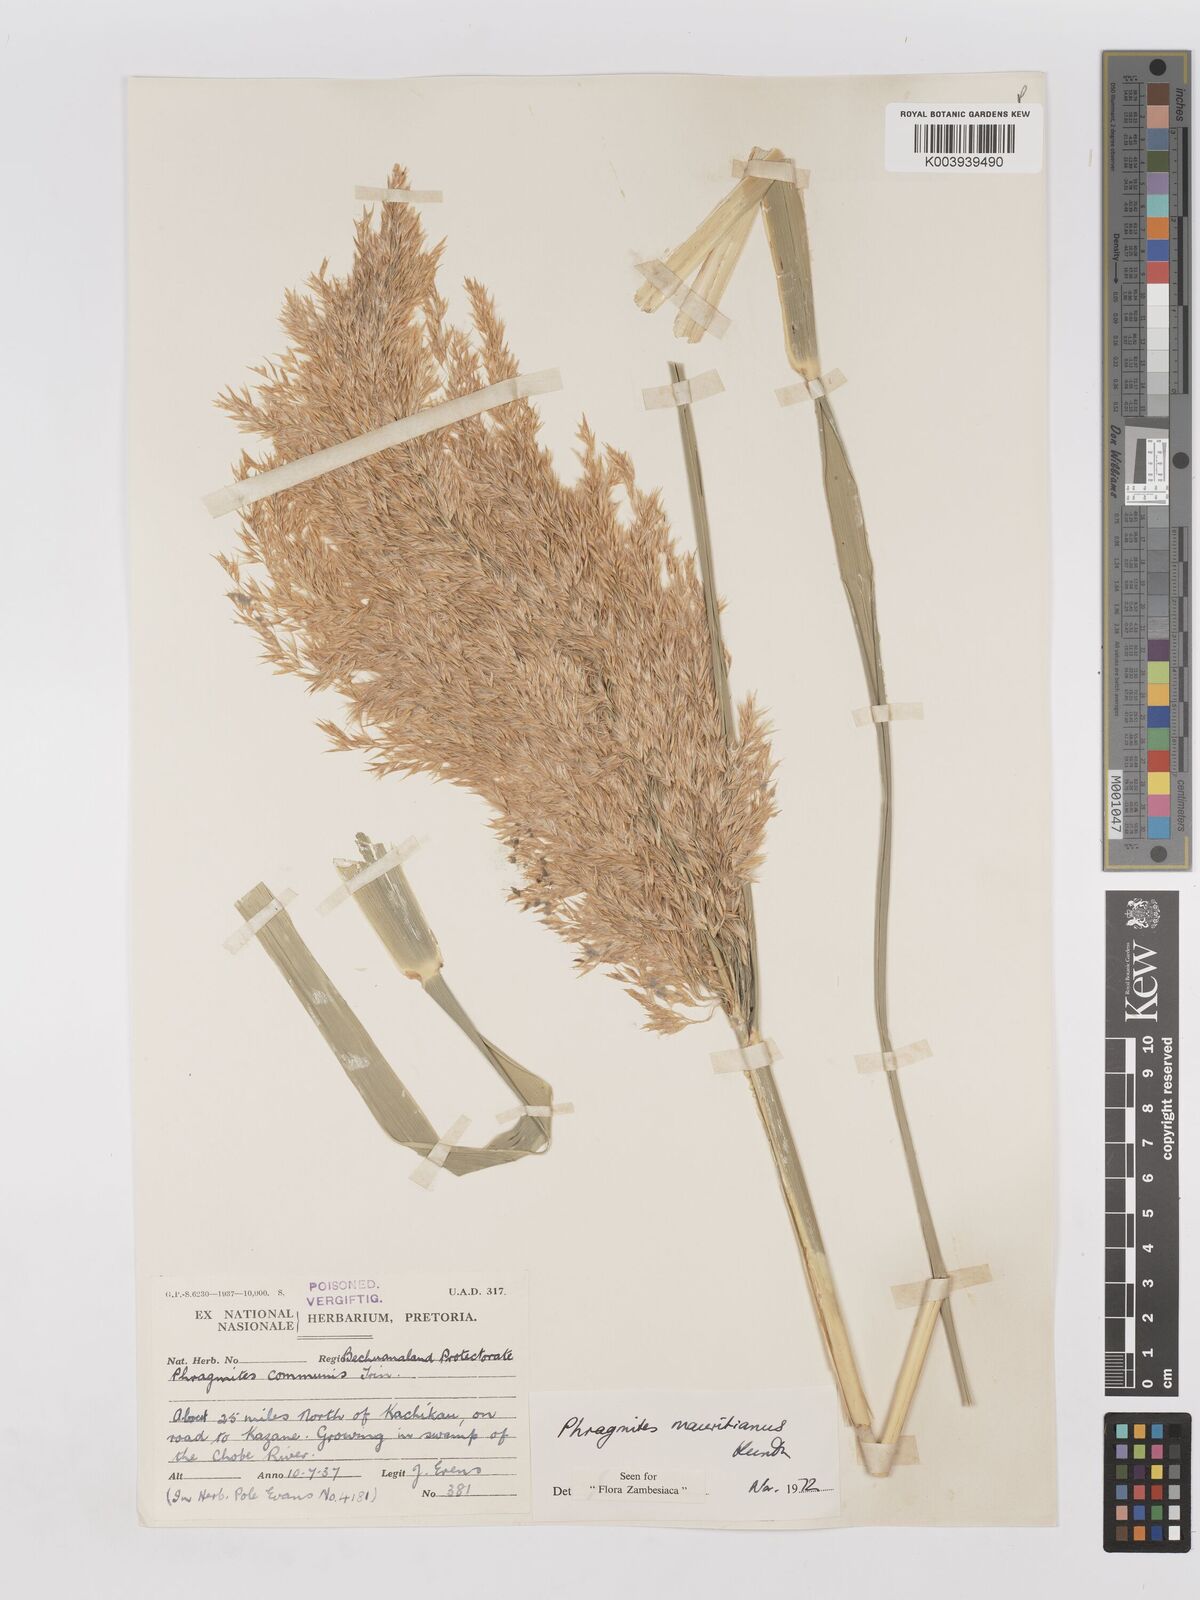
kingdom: Plantae
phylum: Tracheophyta
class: Liliopsida
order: Poales
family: Poaceae
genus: Phragmites
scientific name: Phragmites mauritianus
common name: Reed grass
